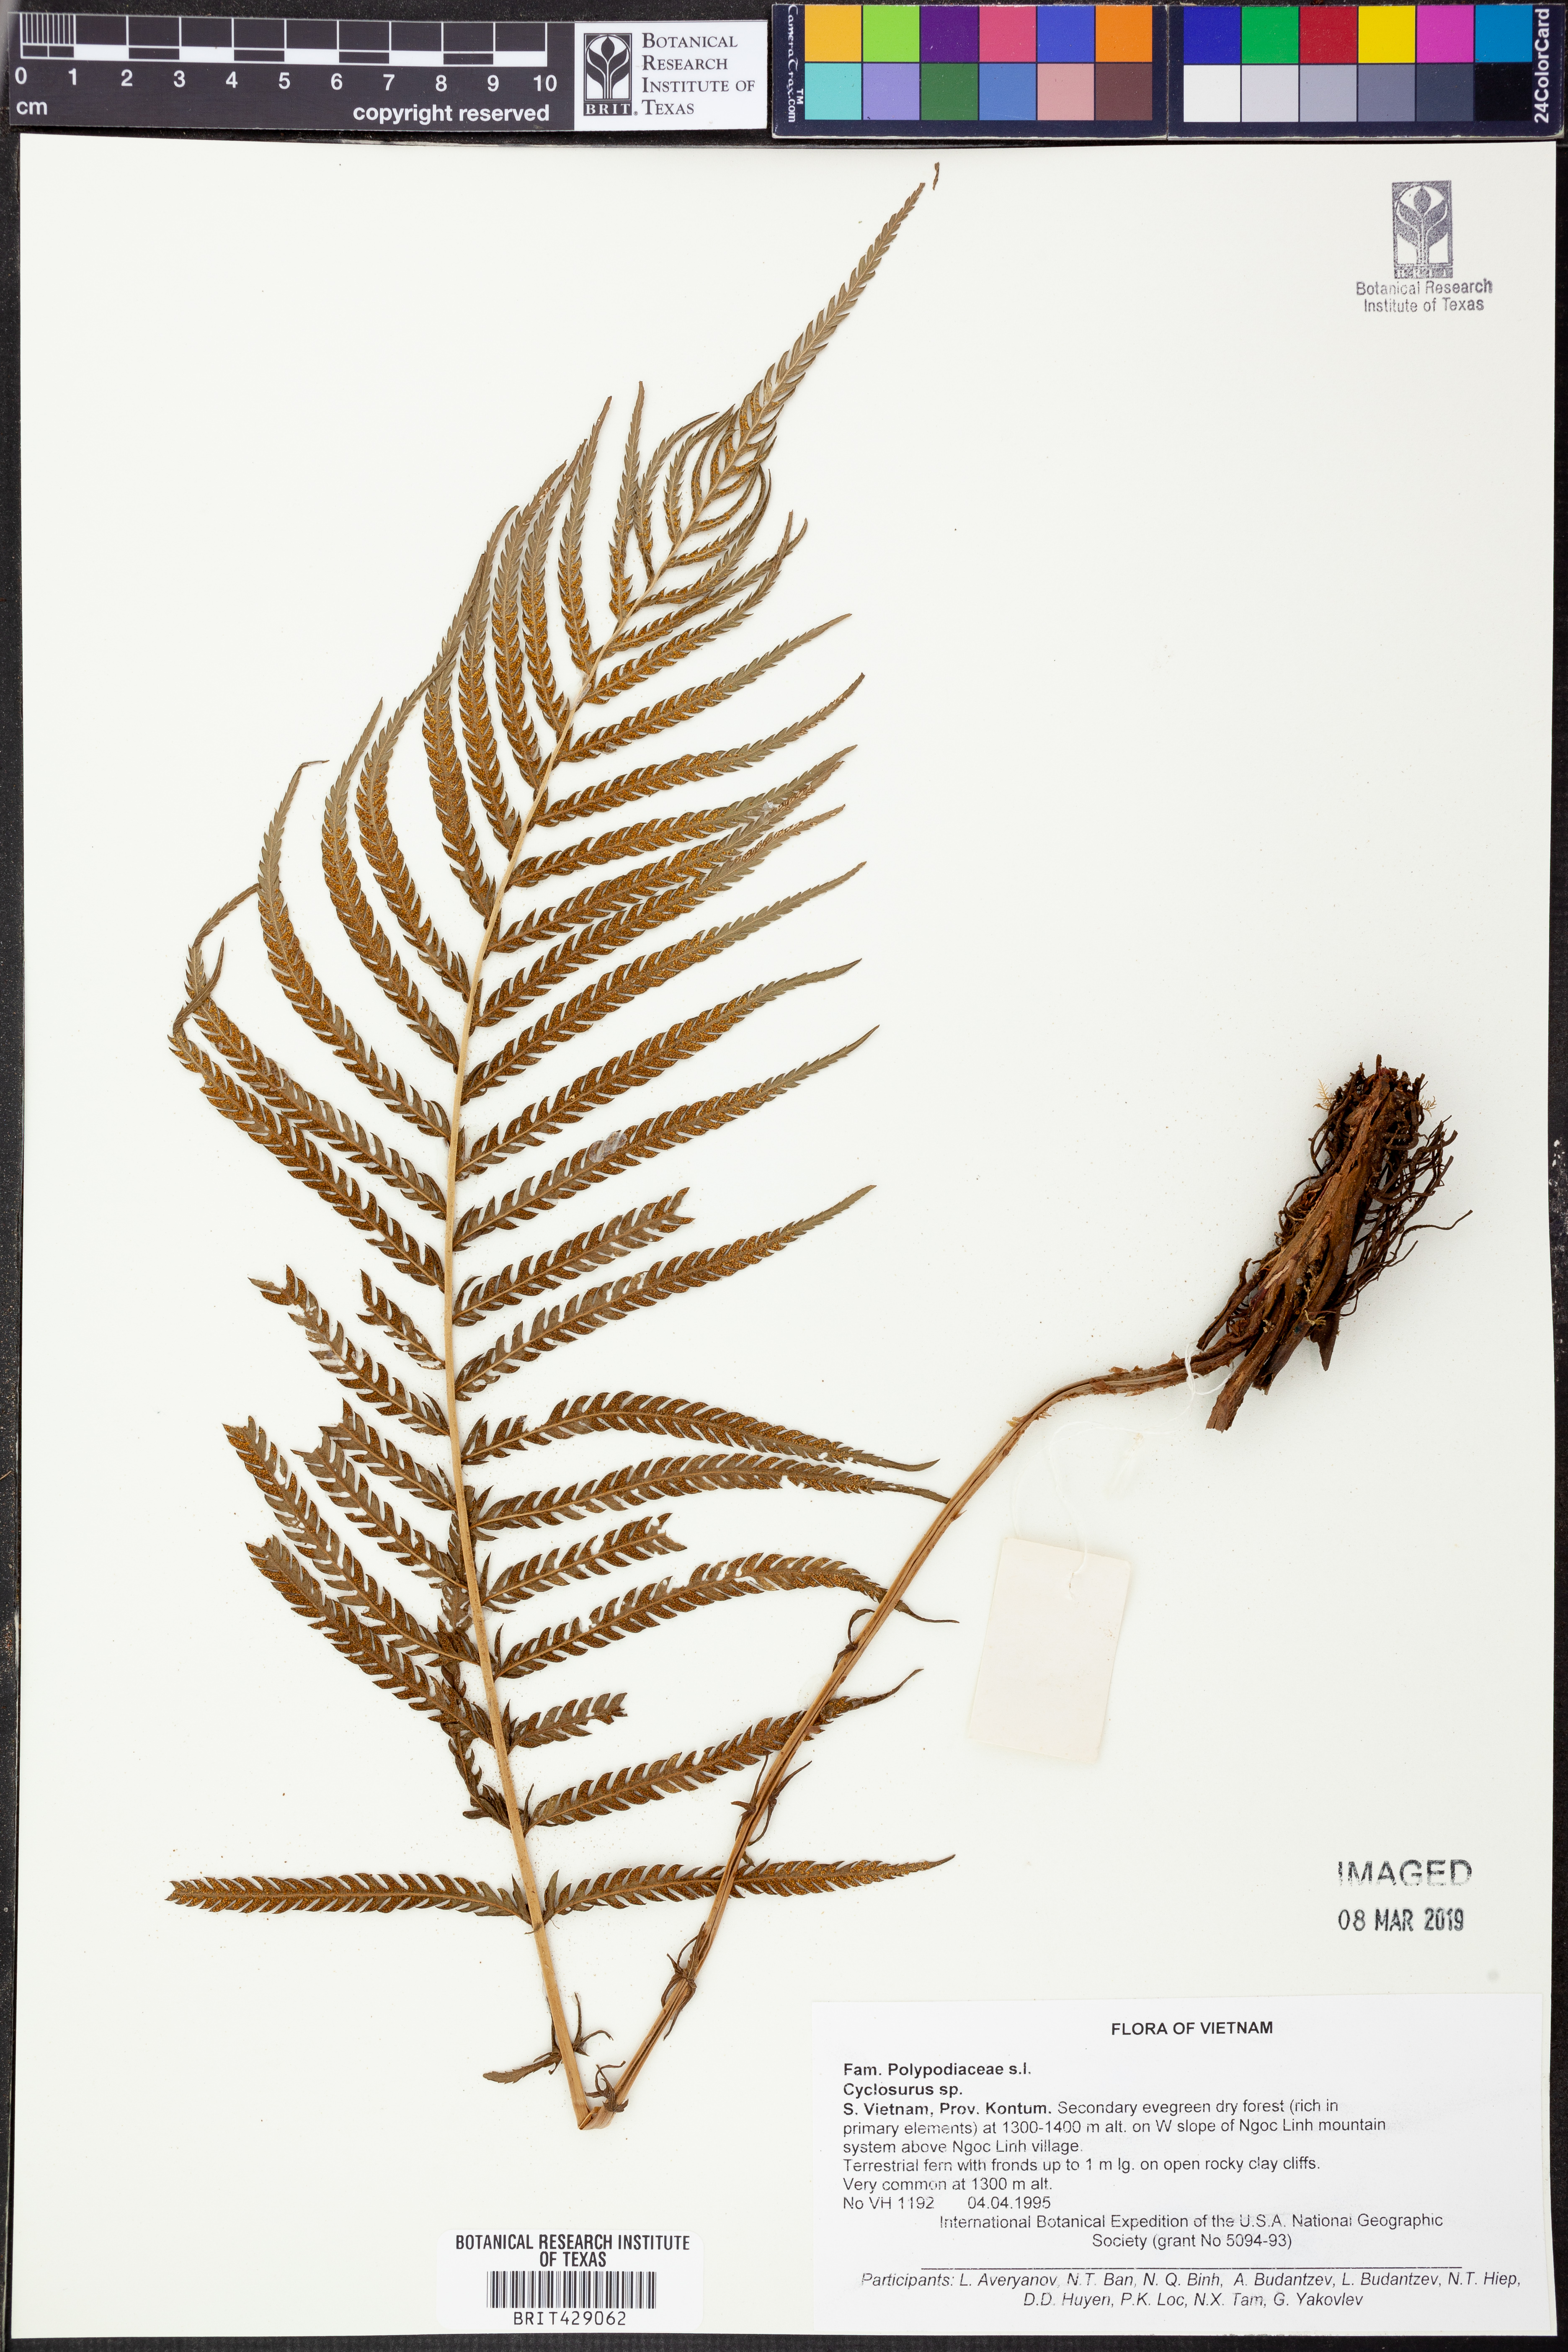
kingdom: Plantae
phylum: Tracheophyta
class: Polypodiopsida
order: Polypodiales
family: Thelypteridaceae
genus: Cyclosorus
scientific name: Cyclosorus
